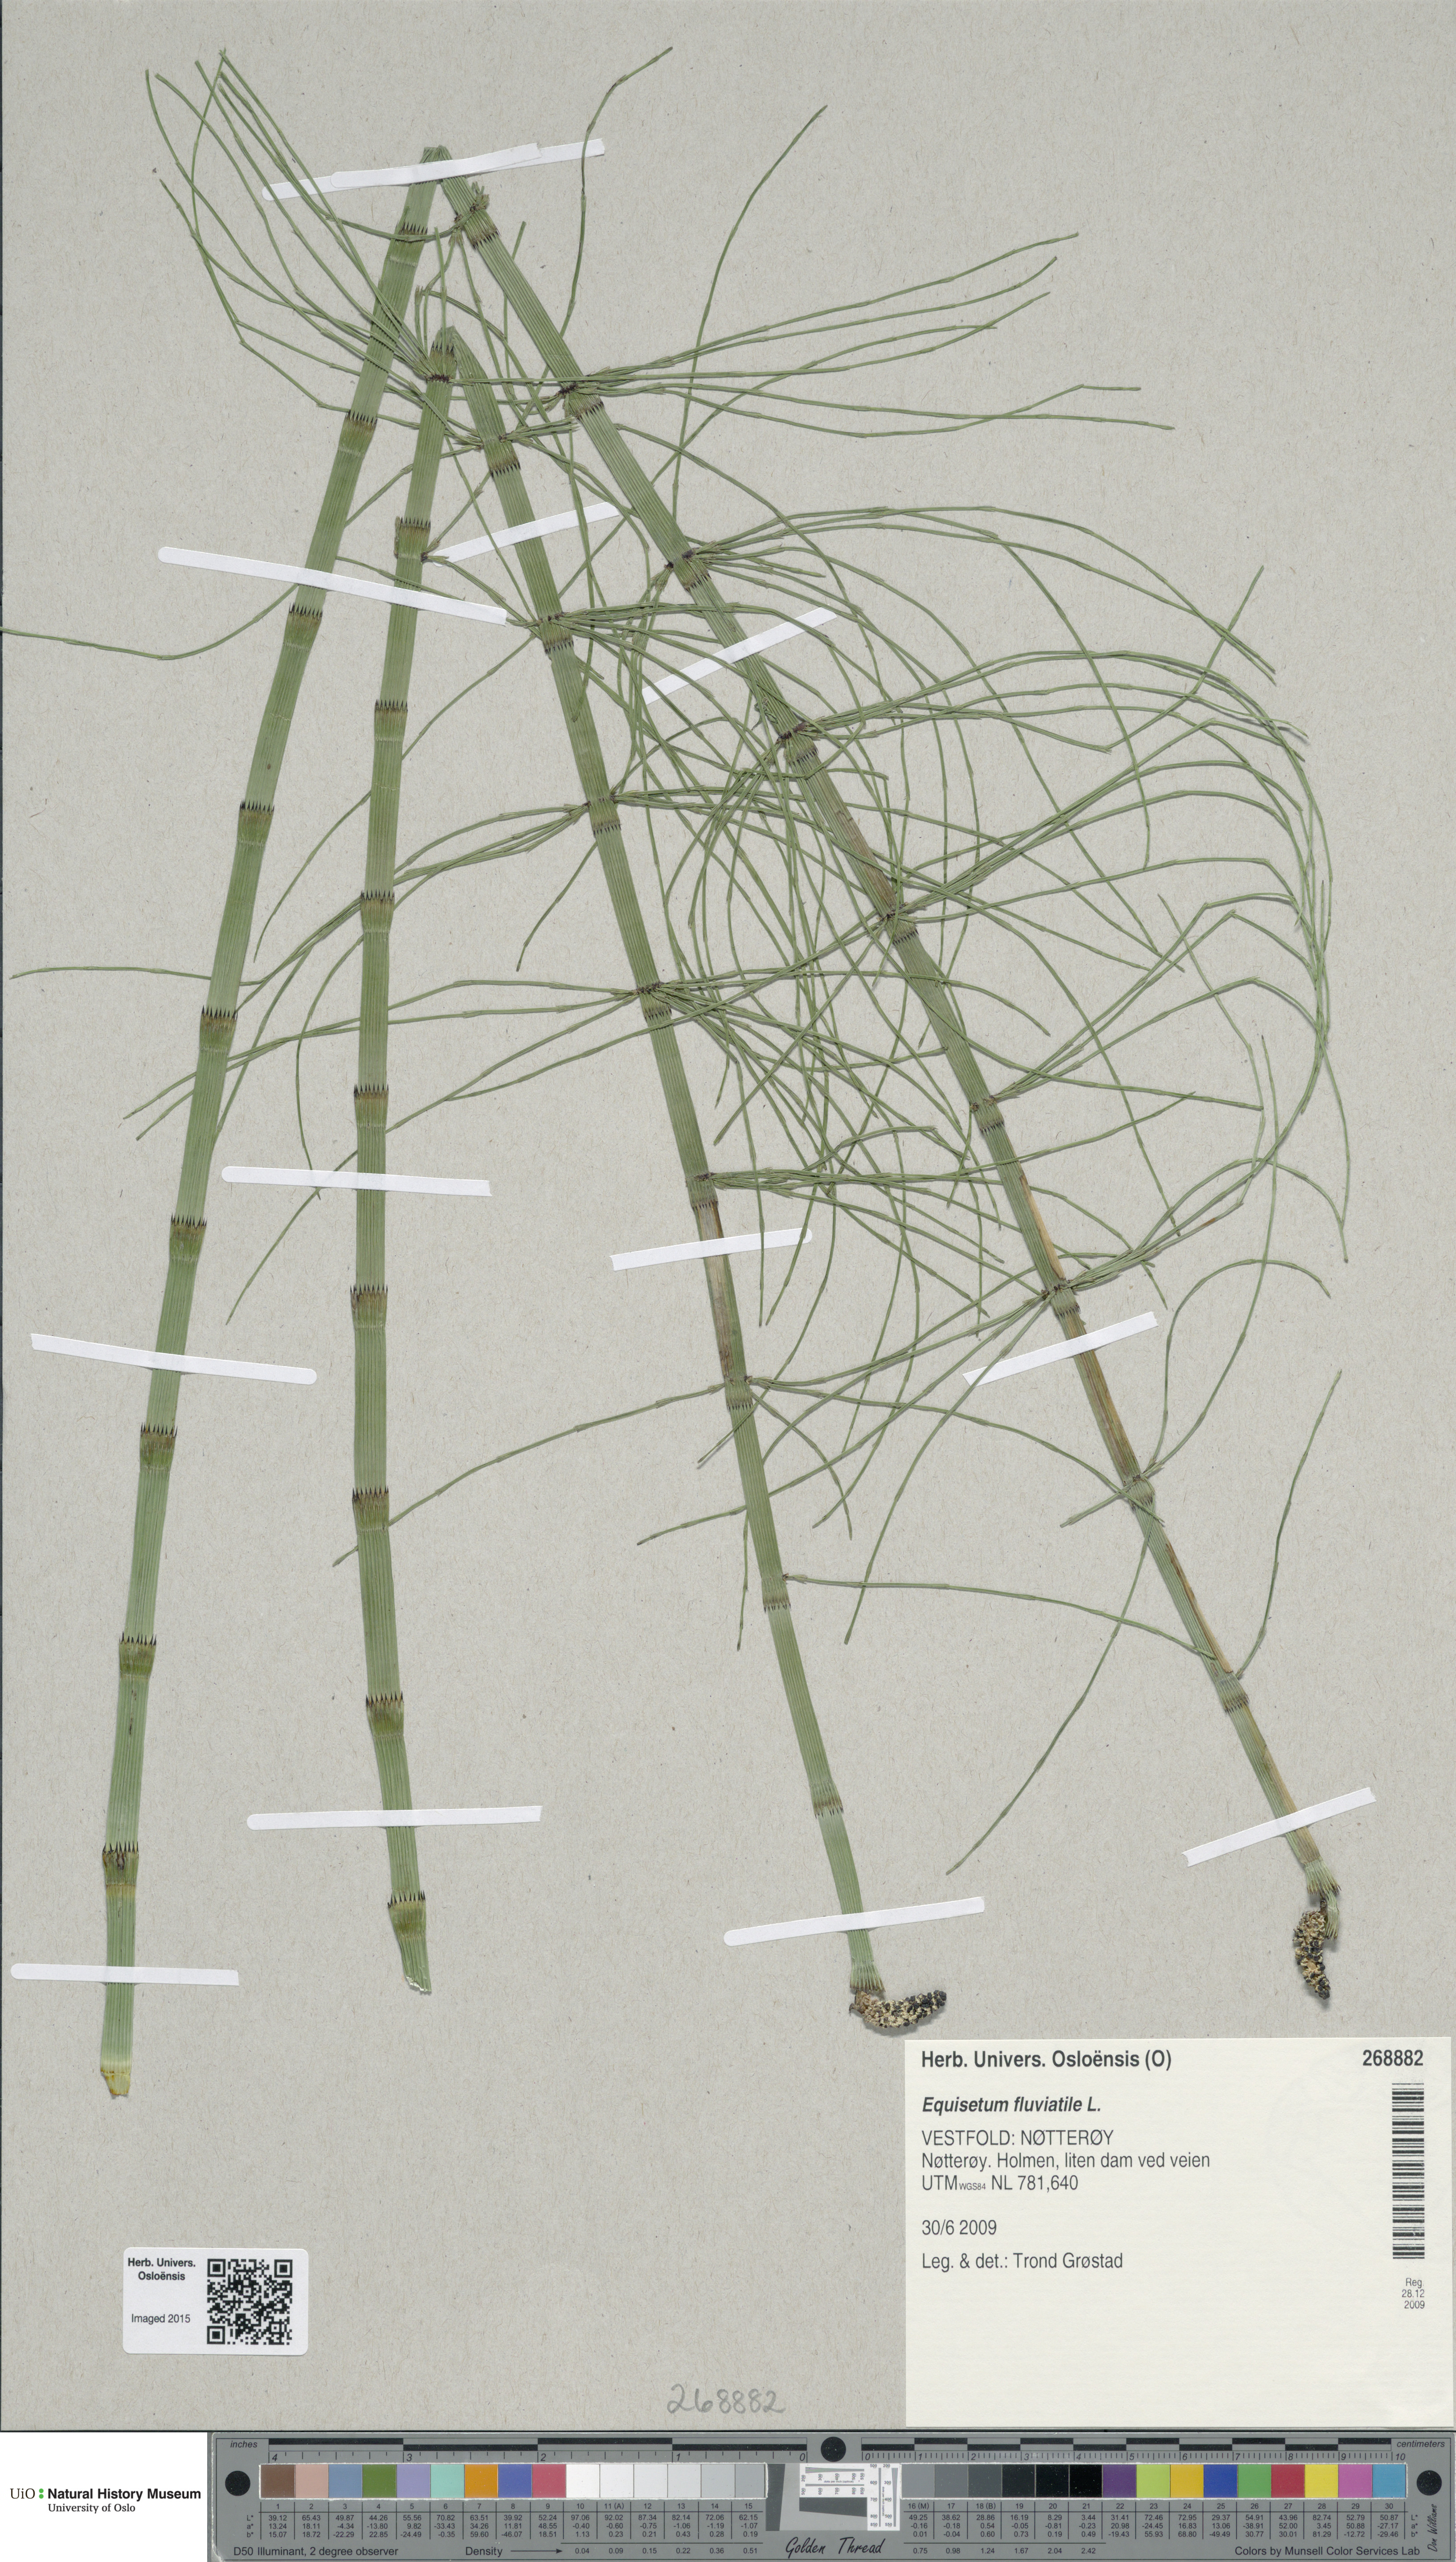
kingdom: Plantae
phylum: Tracheophyta
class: Polypodiopsida
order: Equisetales
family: Equisetaceae
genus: Equisetum
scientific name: Equisetum fluviatile
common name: Water horsetail
